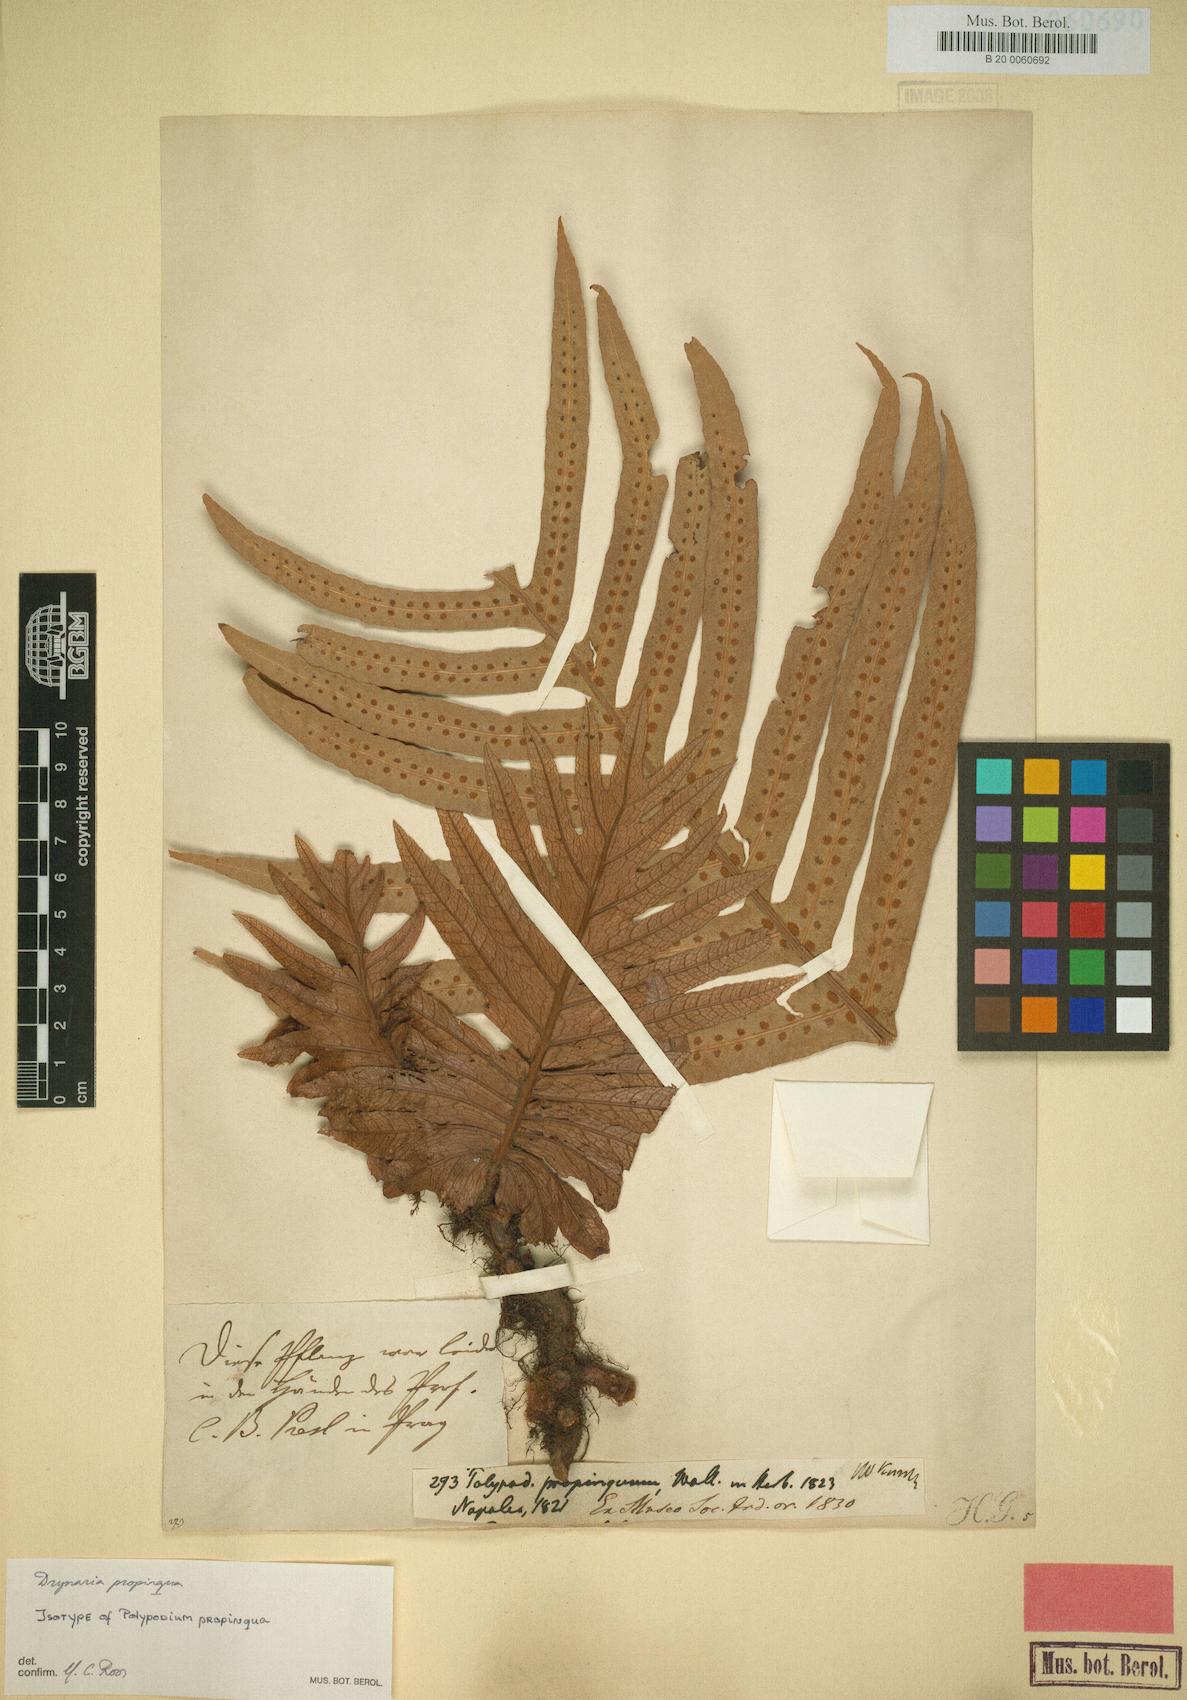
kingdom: Plantae
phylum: Tracheophyta
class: Polypodiopsida
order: Polypodiales
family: Polypodiaceae
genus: Drynaria
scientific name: Drynaria propinqua
